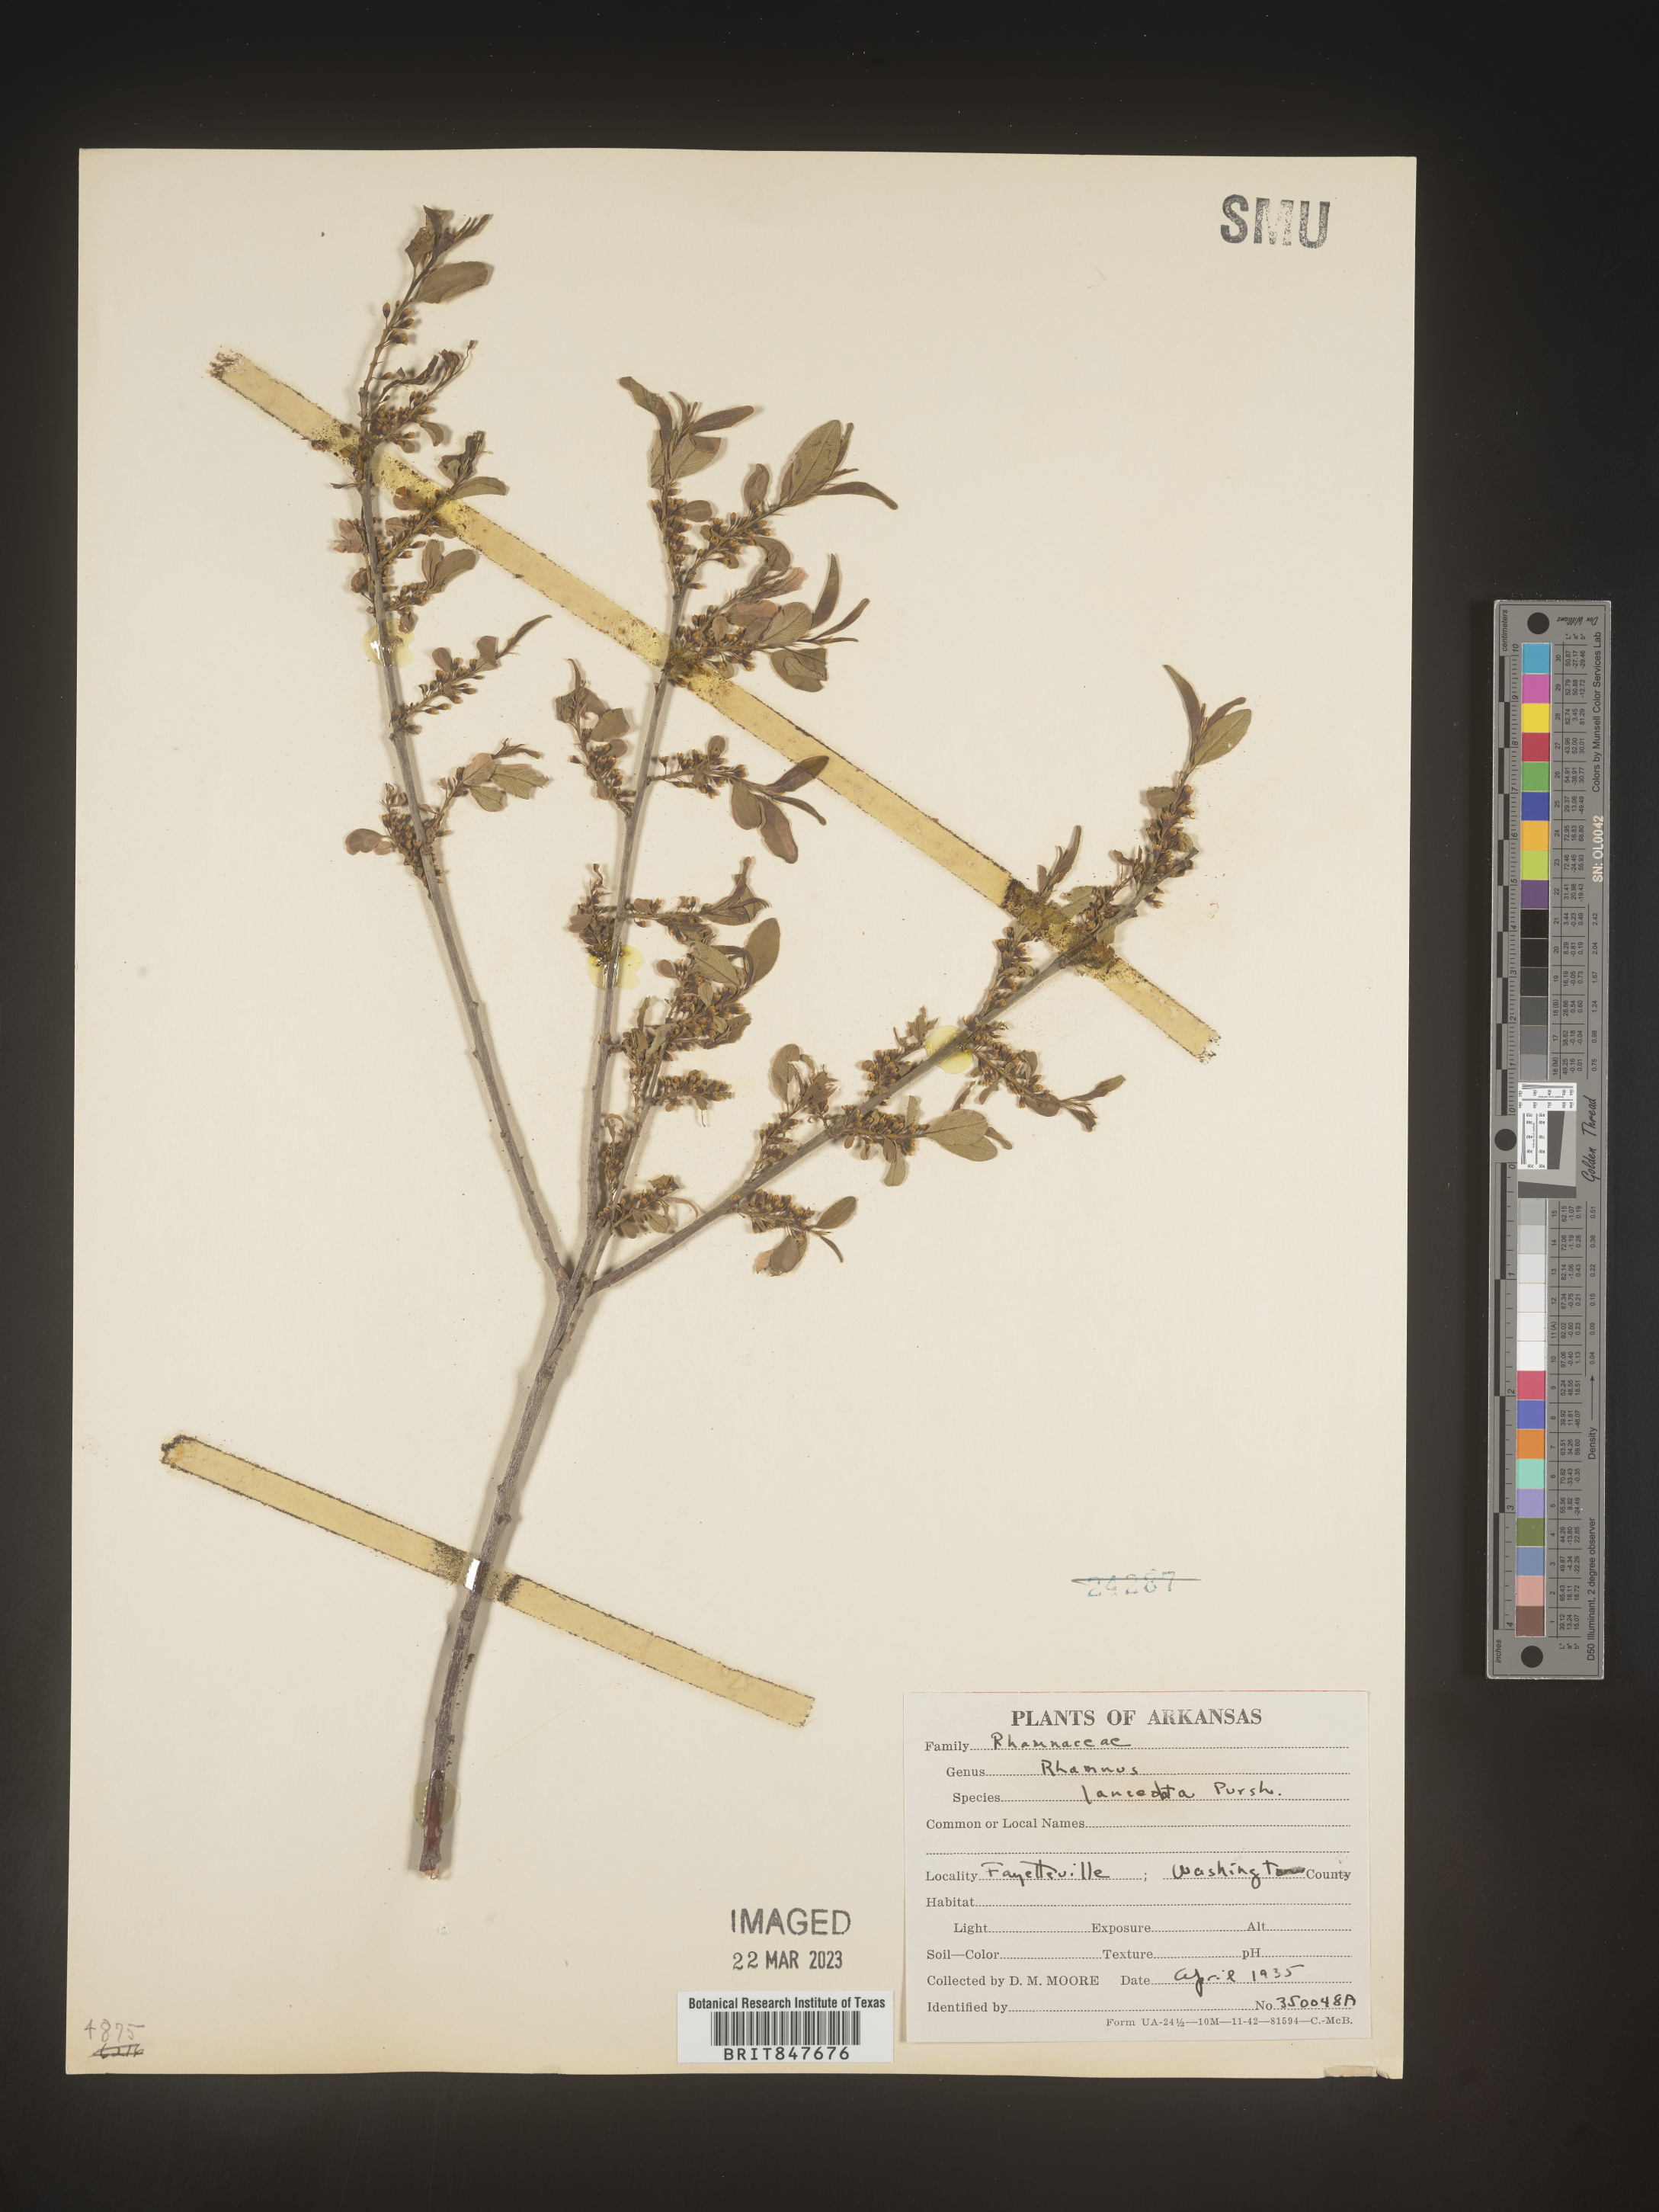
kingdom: Plantae
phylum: Tracheophyta
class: Magnoliopsida
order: Rosales
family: Rhamnaceae
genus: Endotropis
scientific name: Endotropis lanceolata
